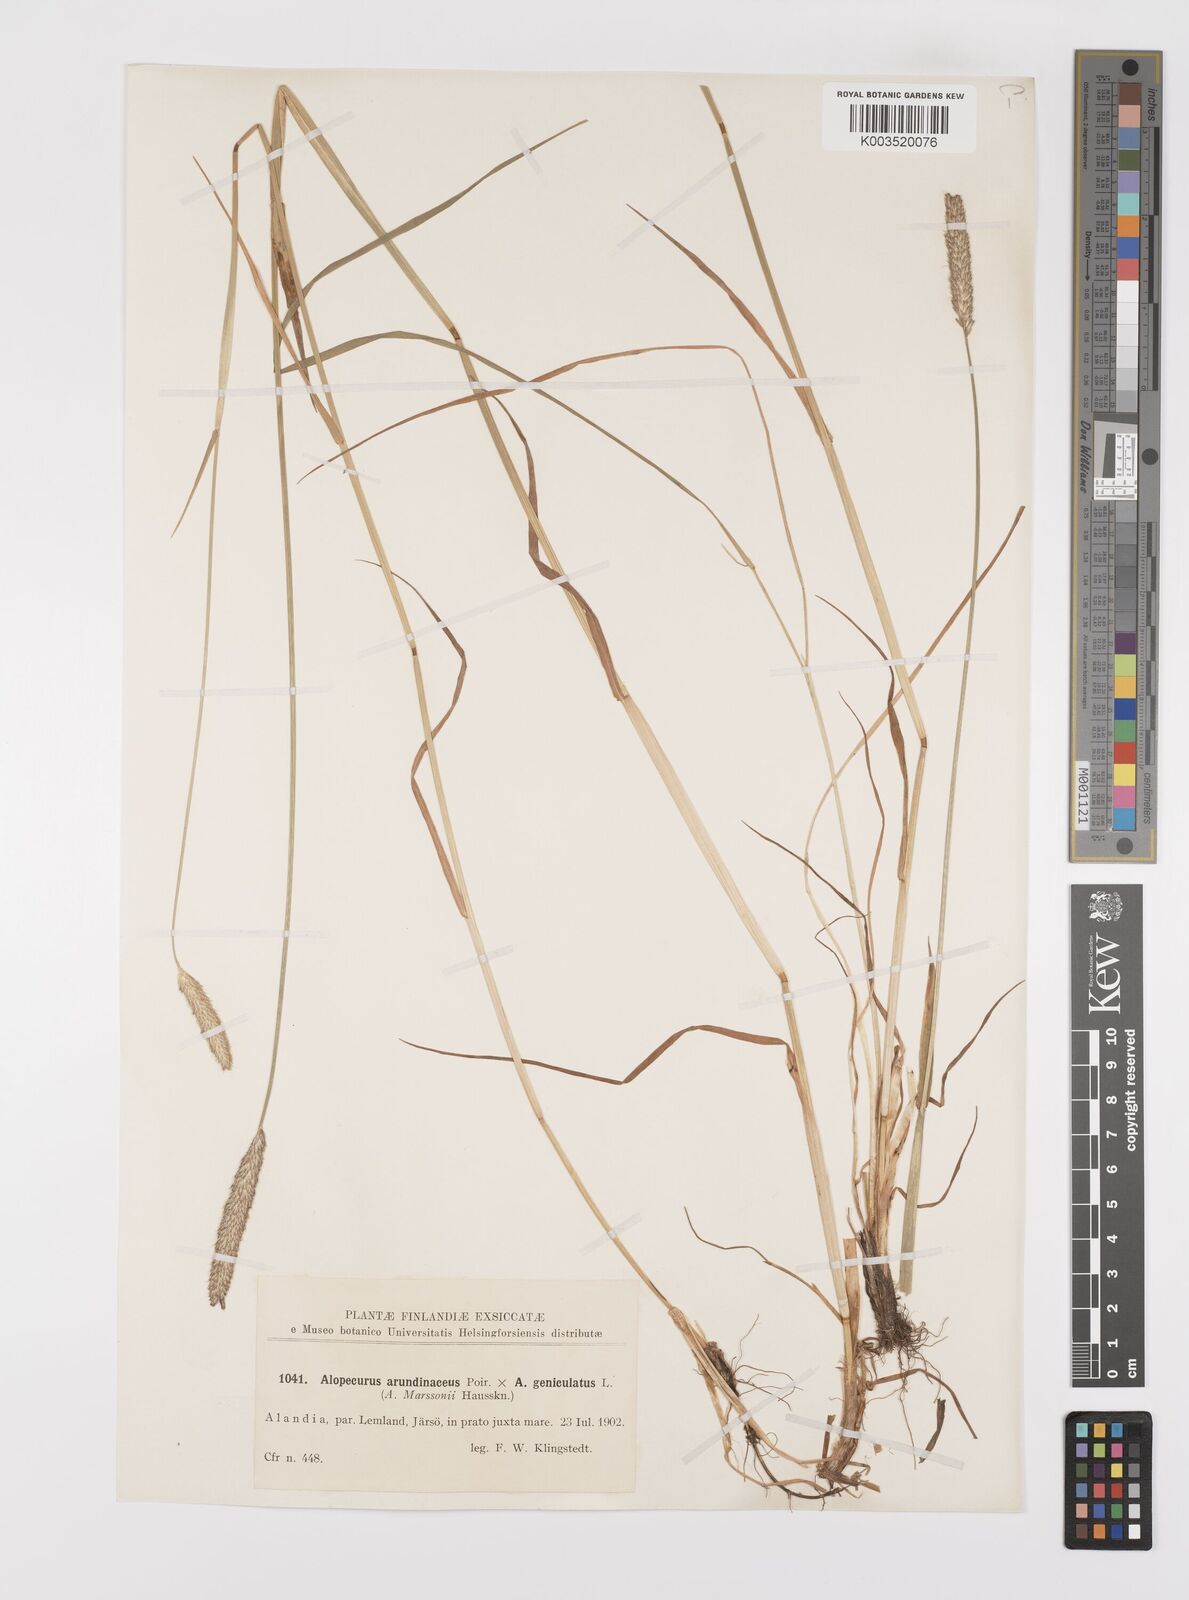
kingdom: Plantae
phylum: Tracheophyta
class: Liliopsida
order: Poales
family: Poaceae
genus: Alopecurus
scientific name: Alopecurus arundinaceus
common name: Creeping meadow foxtail
